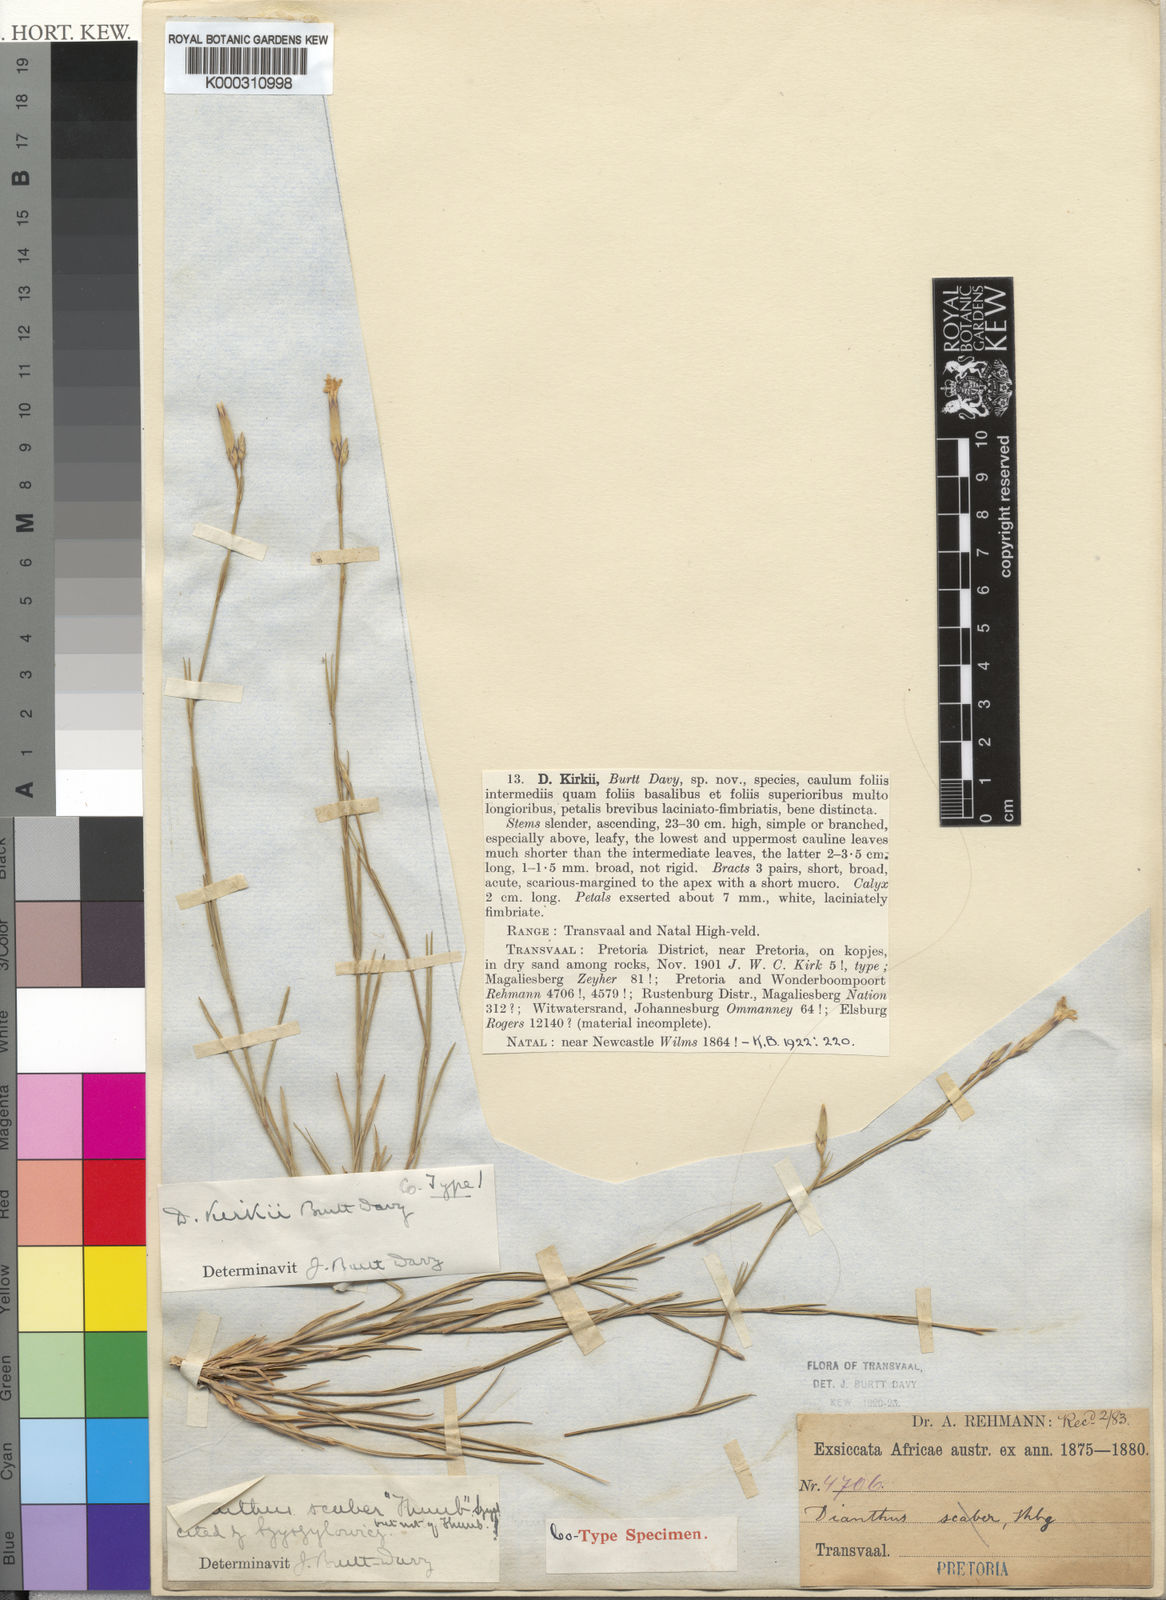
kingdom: Plantae
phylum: Tracheophyta
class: Magnoliopsida
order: Caryophyllales
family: Caryophyllaceae
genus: Dianthus
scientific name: Dianthus thunbergii
